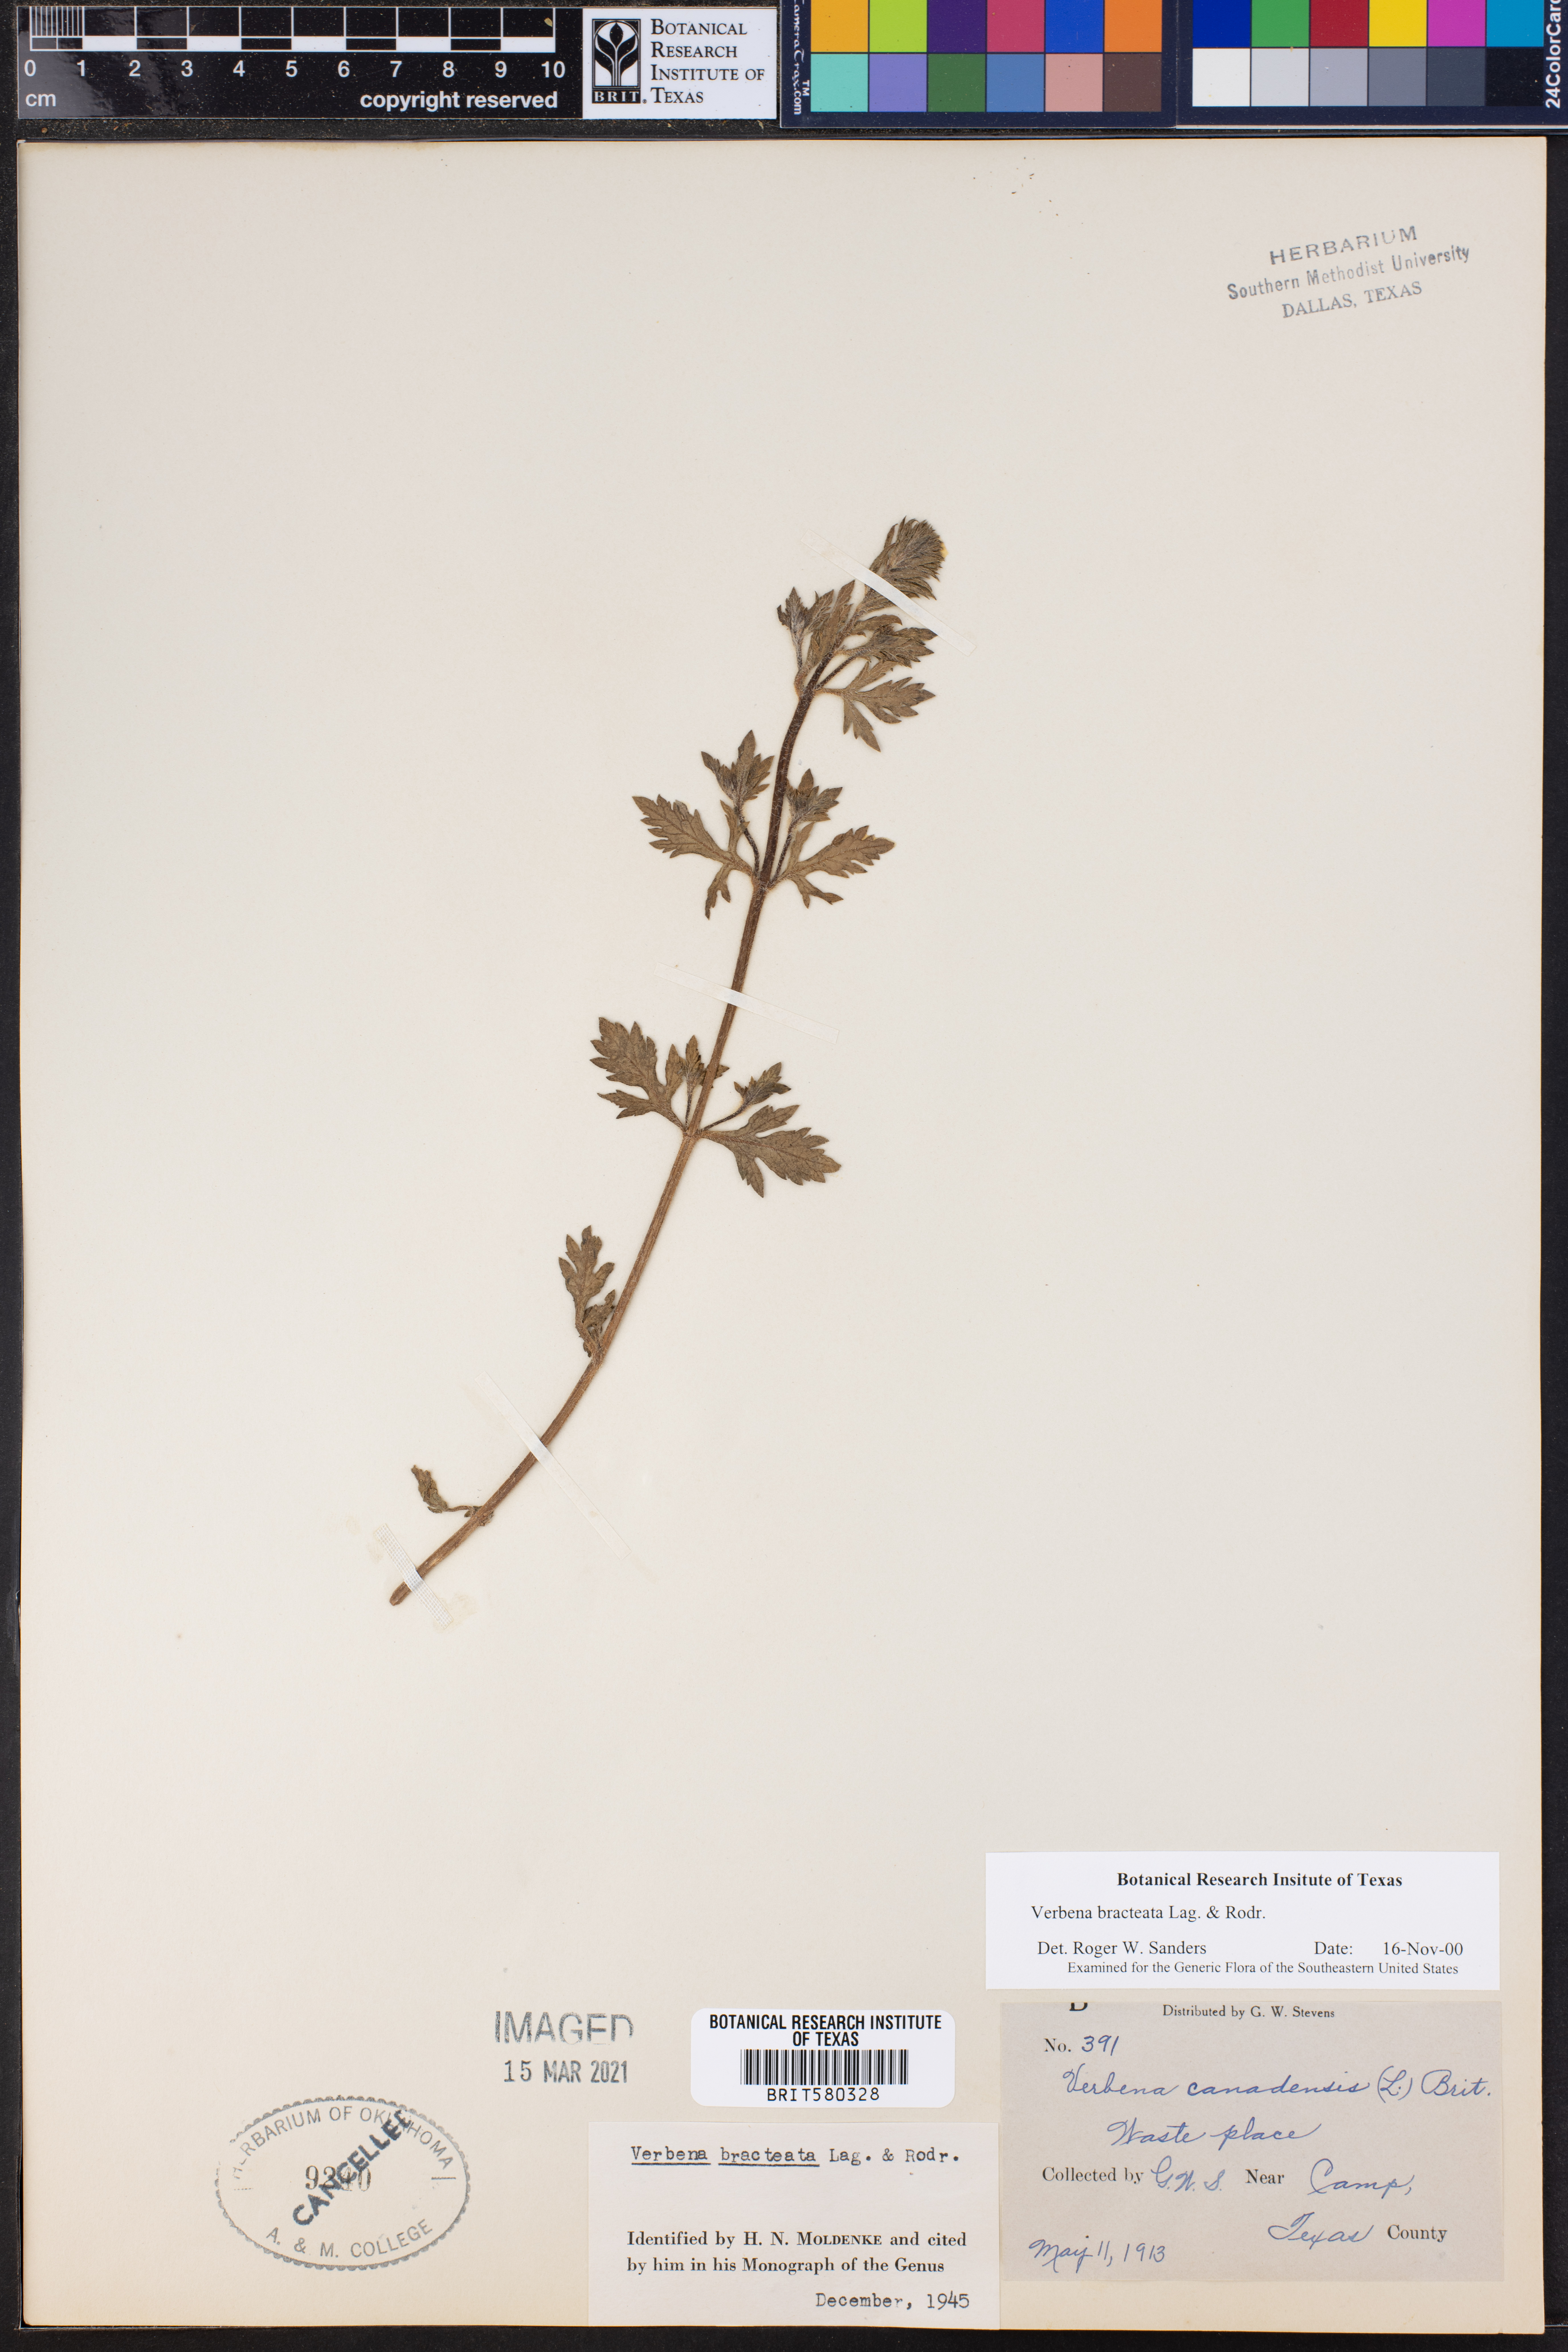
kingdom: Plantae
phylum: Tracheophyta
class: Magnoliopsida
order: Lamiales
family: Verbenaceae
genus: Verbena
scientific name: Verbena bracteata
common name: Bracted vervain
